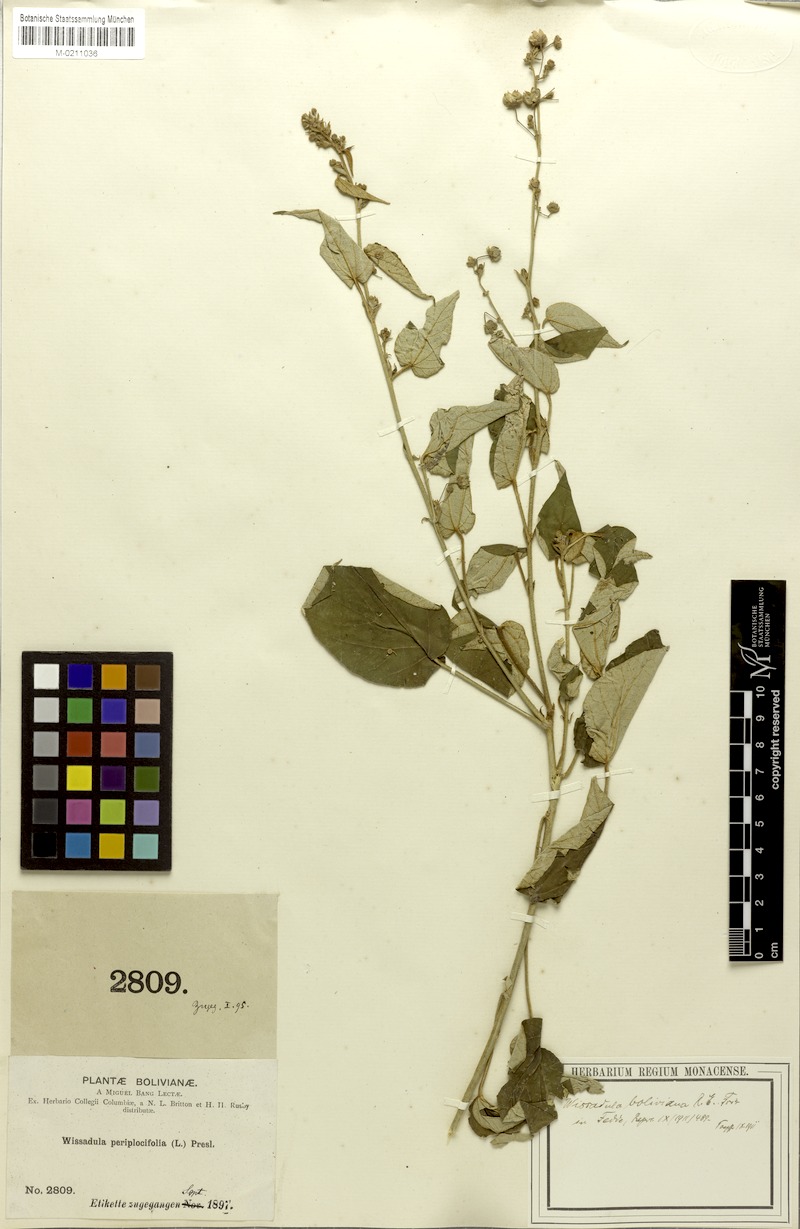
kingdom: Plantae
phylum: Tracheophyta
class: Magnoliopsida
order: Malvales
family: Malvaceae
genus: Wissadula
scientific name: Wissadula boliviana
